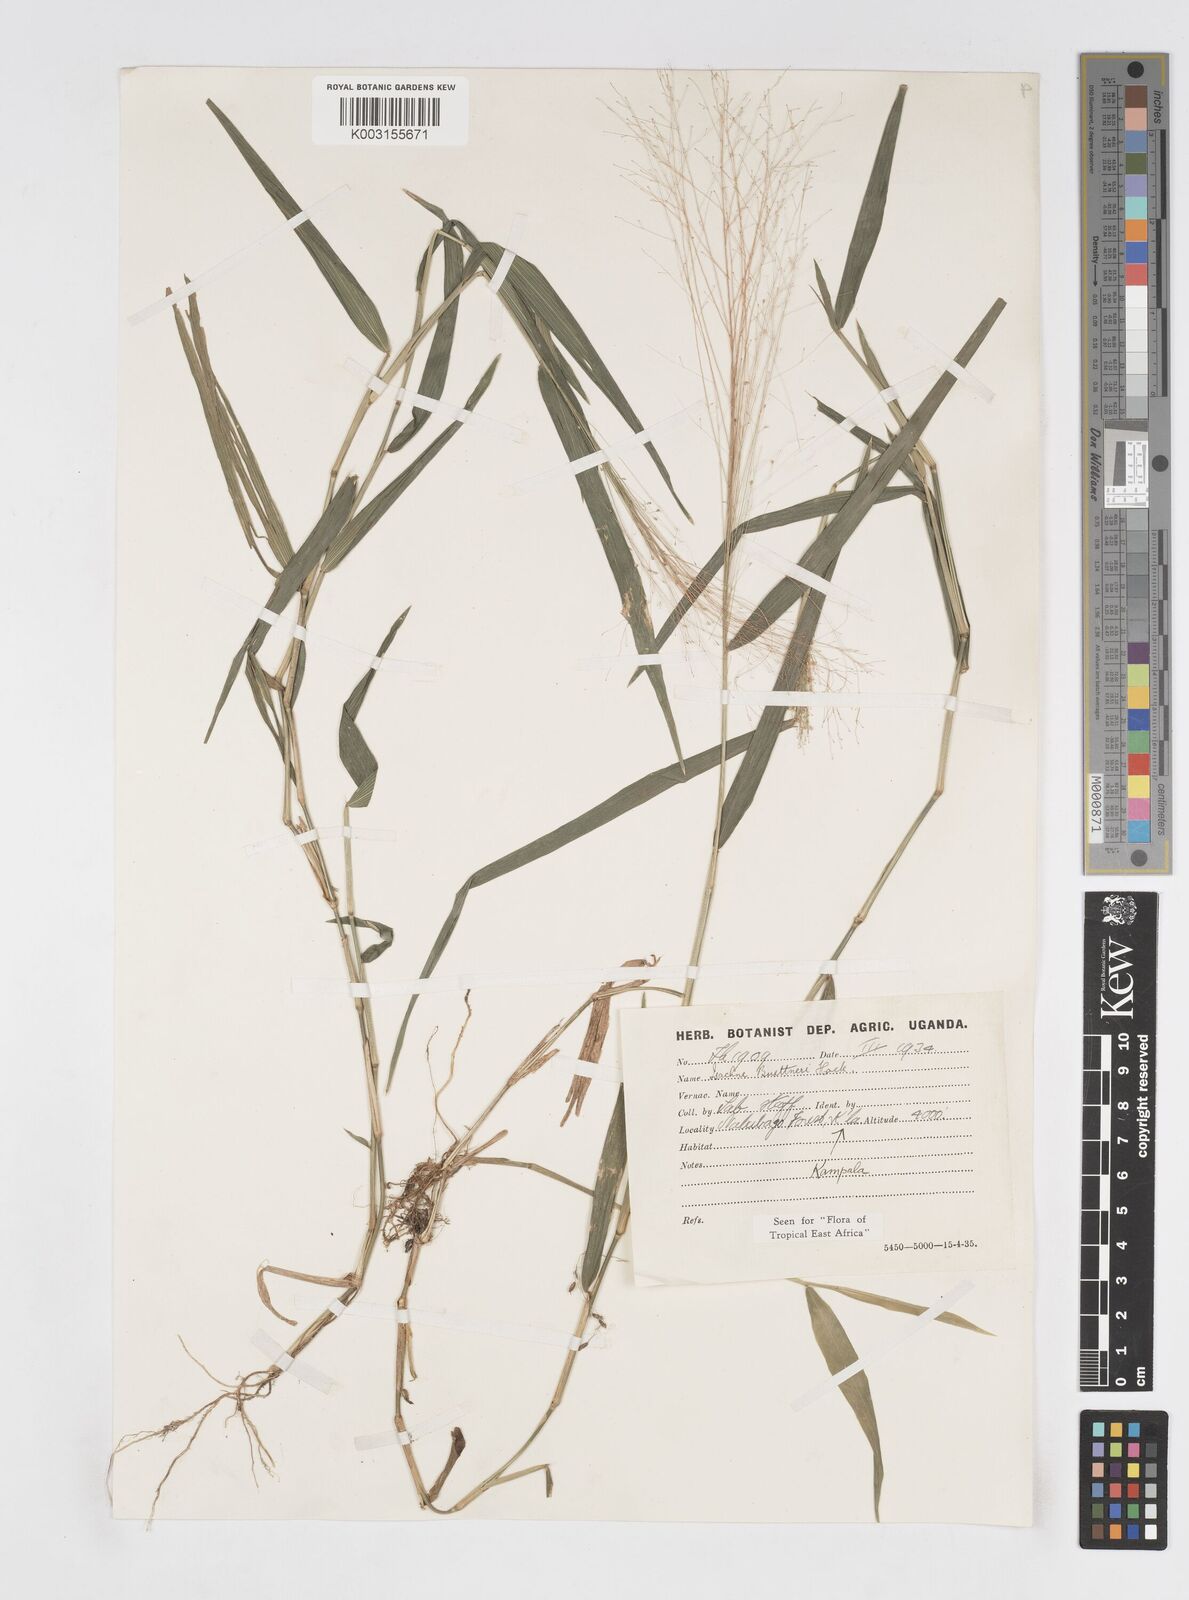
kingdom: Plantae
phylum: Tracheophyta
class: Liliopsida
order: Poales
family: Poaceae
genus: Isachne
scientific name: Isachne albens
